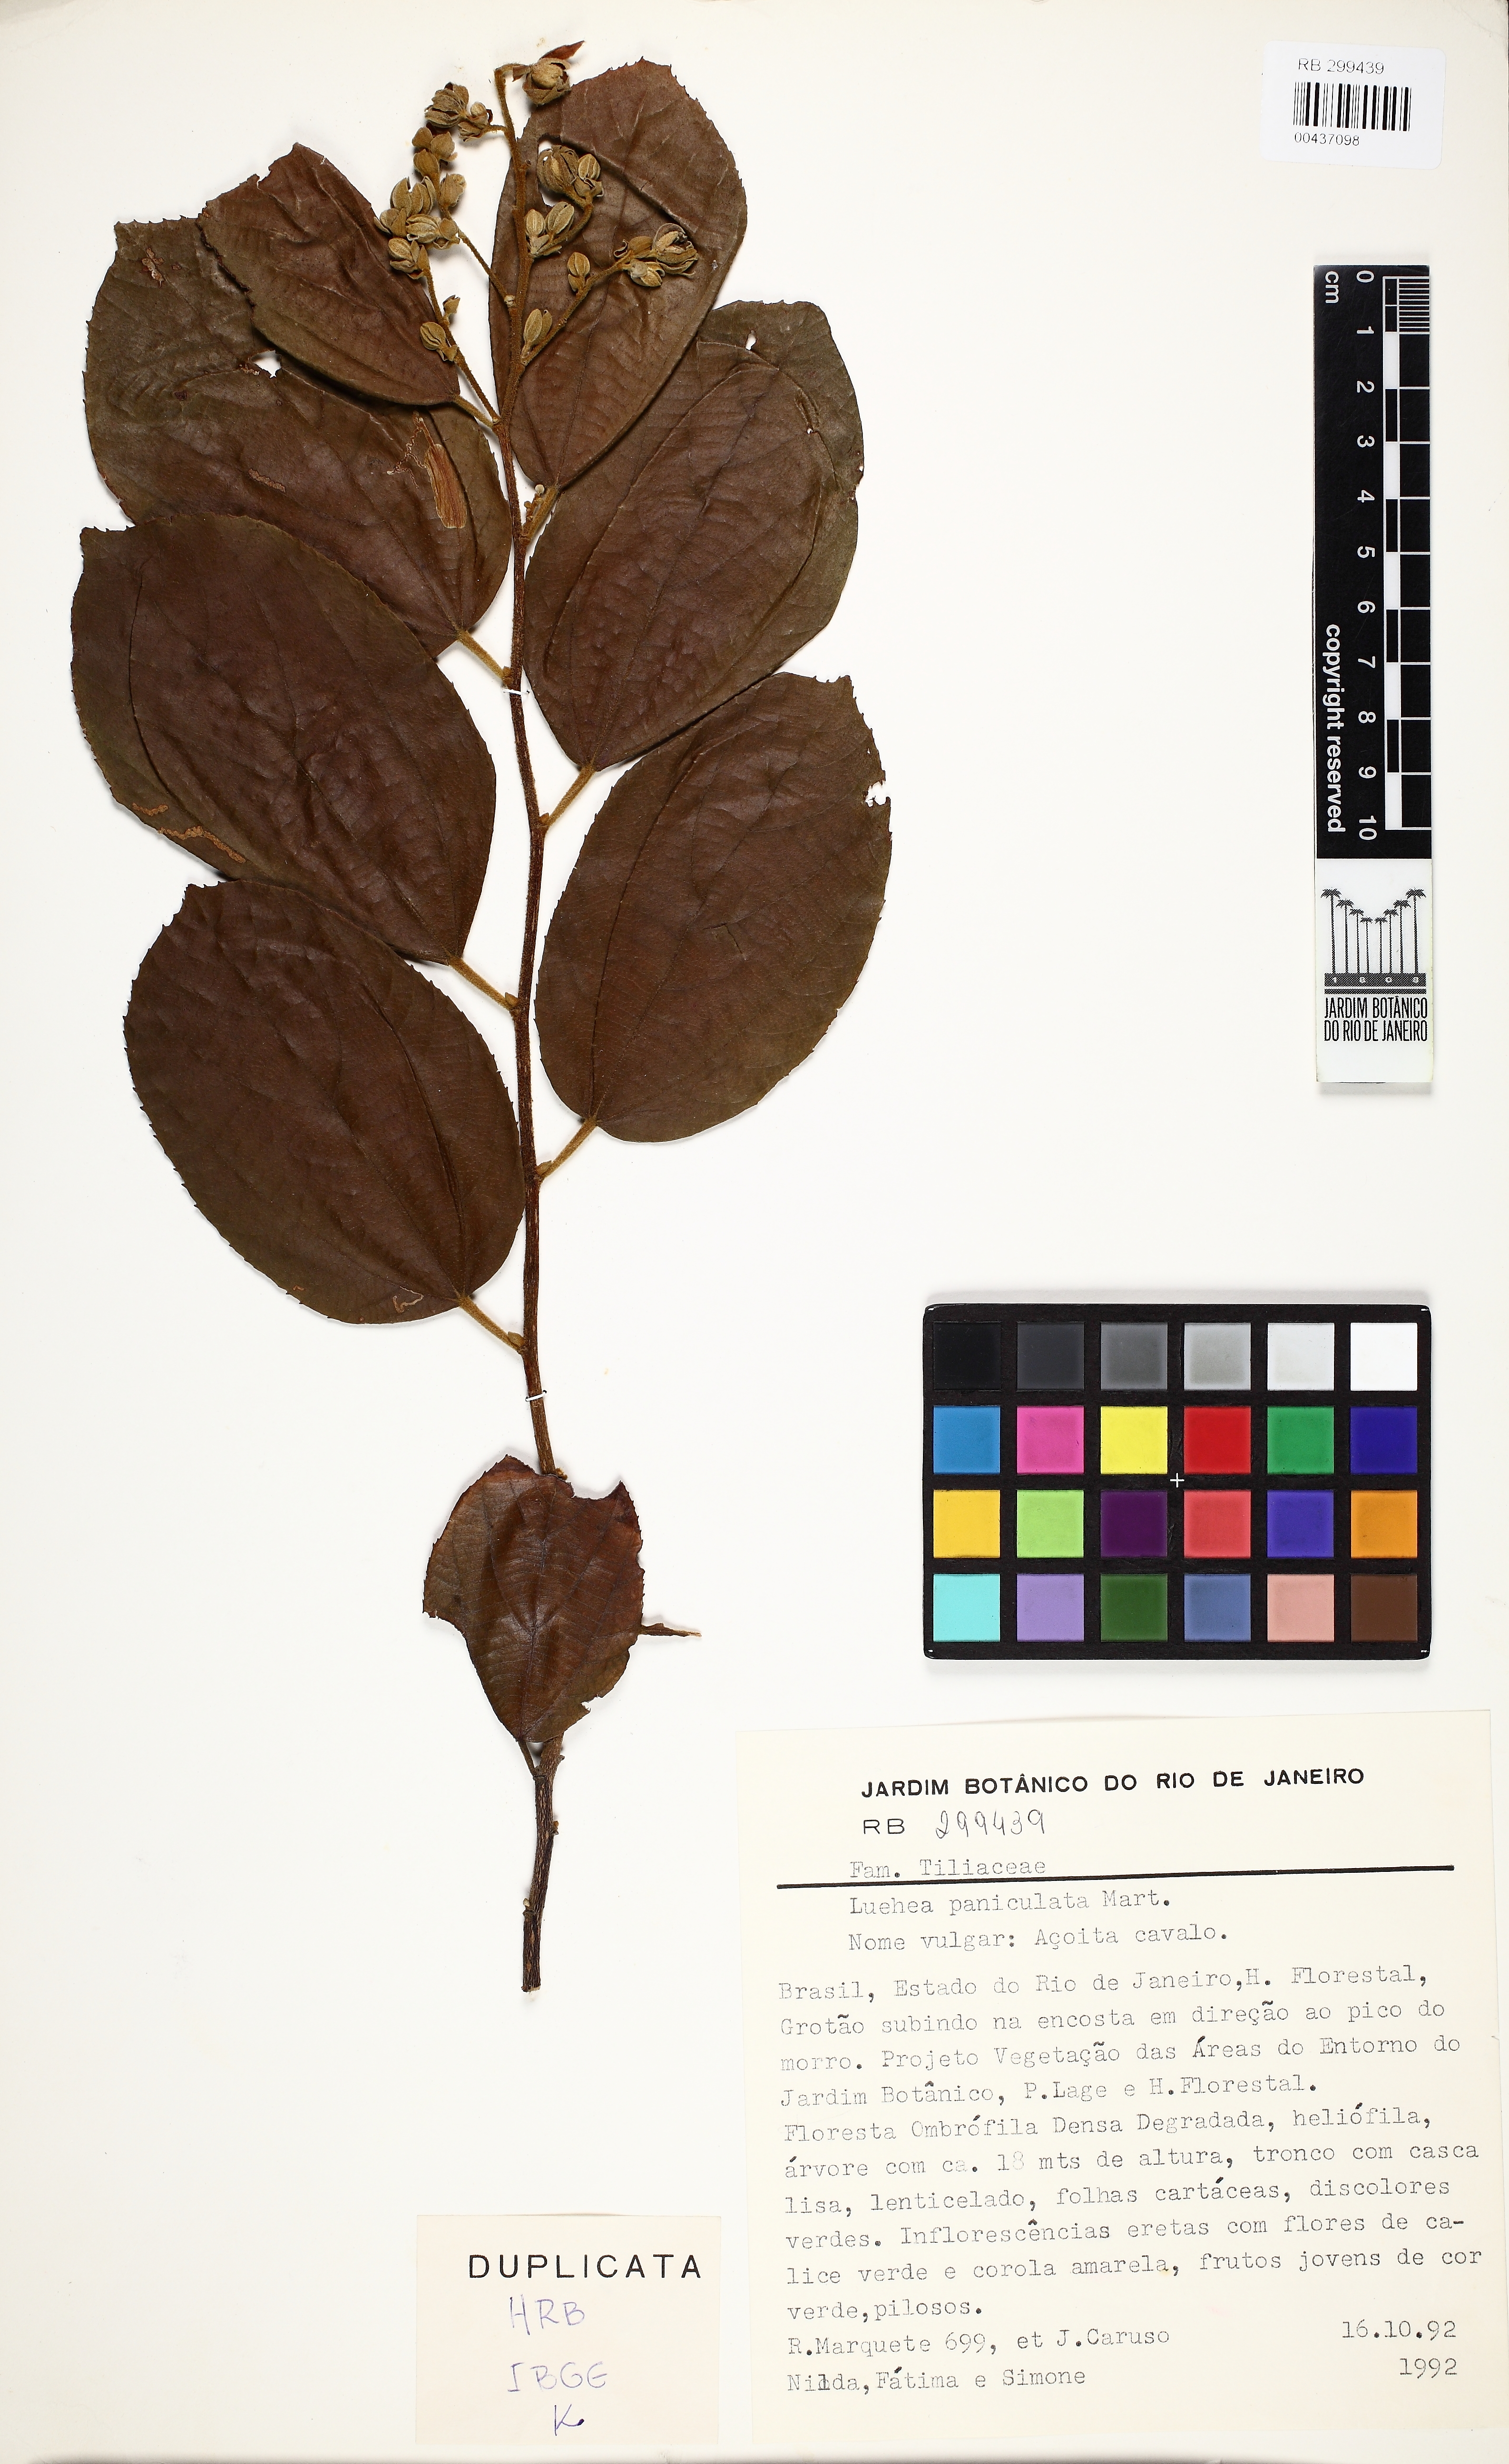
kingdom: Plantae
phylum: Tracheophyta
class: Magnoliopsida
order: Malvales
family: Malvaceae
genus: Luehea
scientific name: Luehea paniculata
